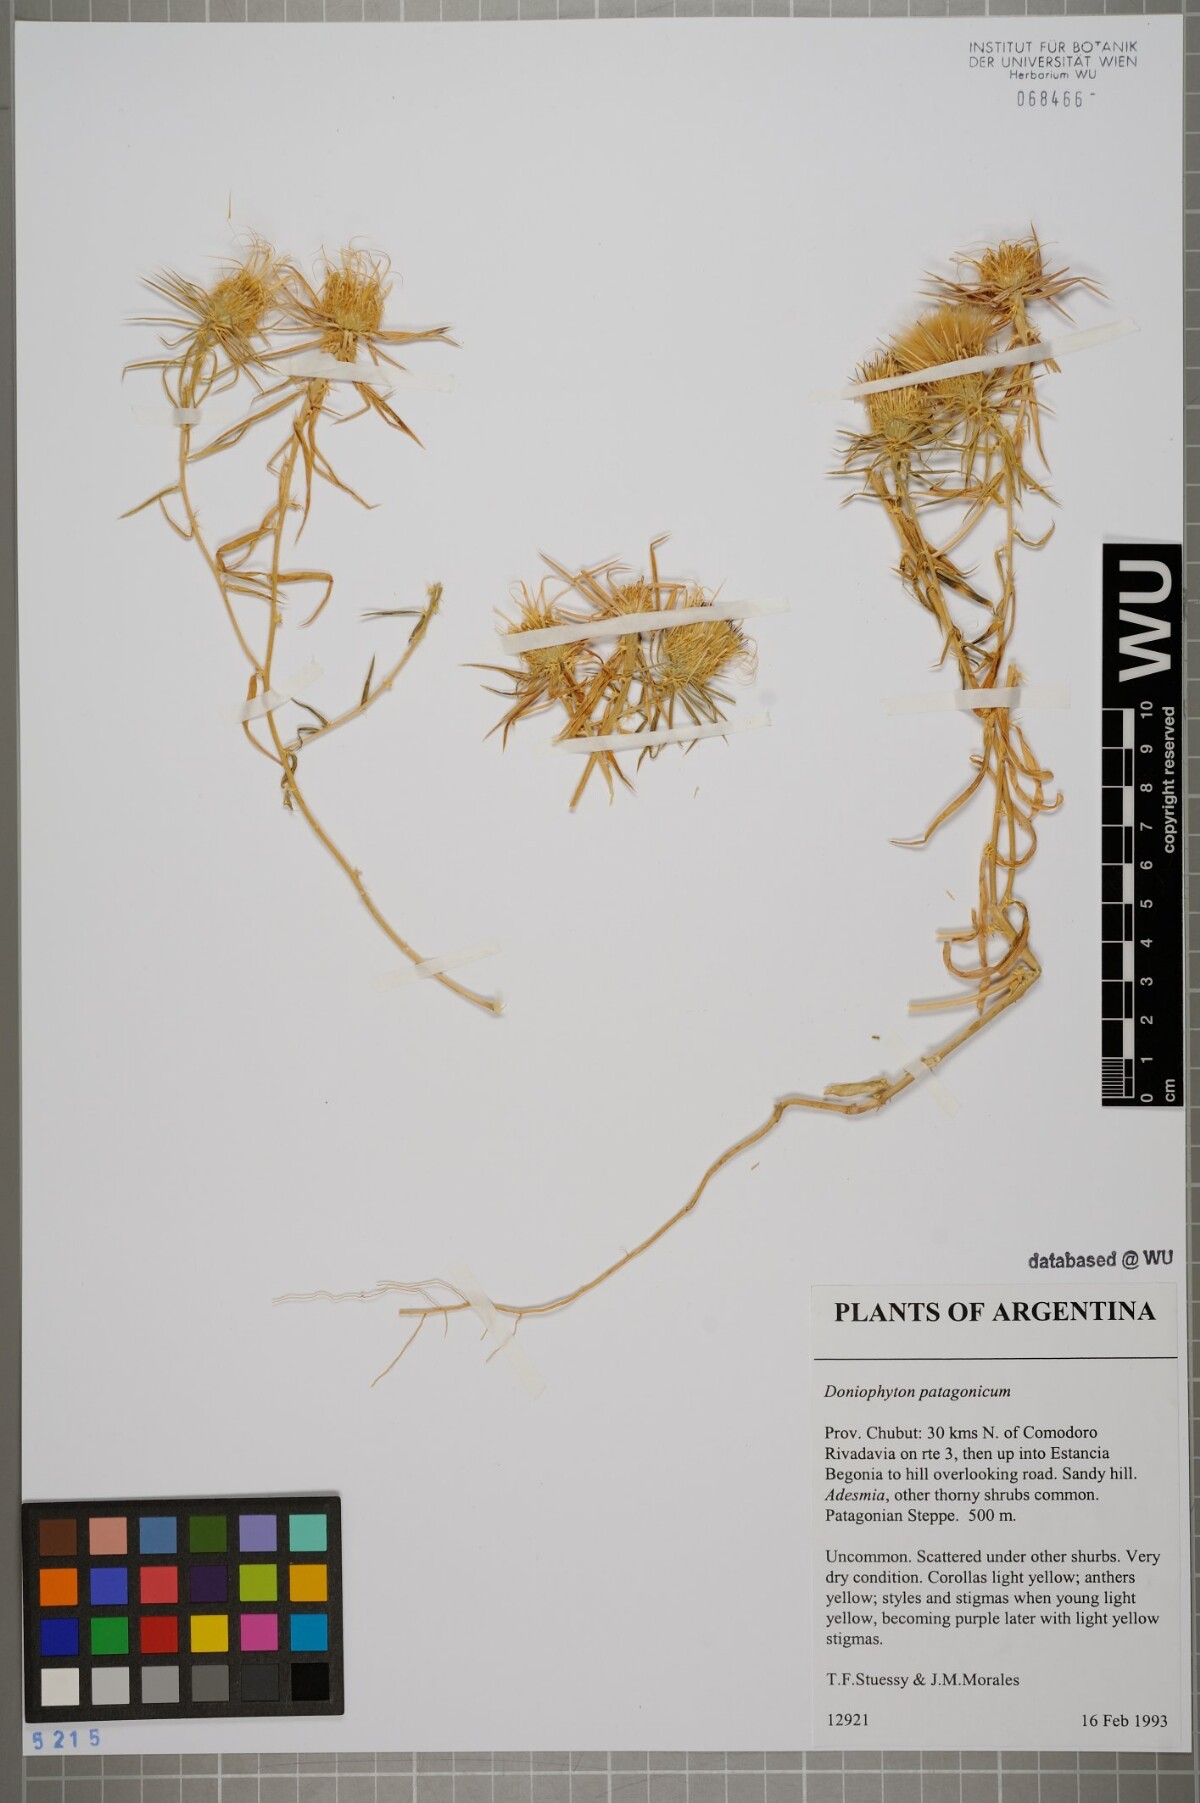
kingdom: Plantae
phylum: Tracheophyta
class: Magnoliopsida
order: Asterales
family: Asteraceae
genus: Doniophyton
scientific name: Doniophyton anomalum
